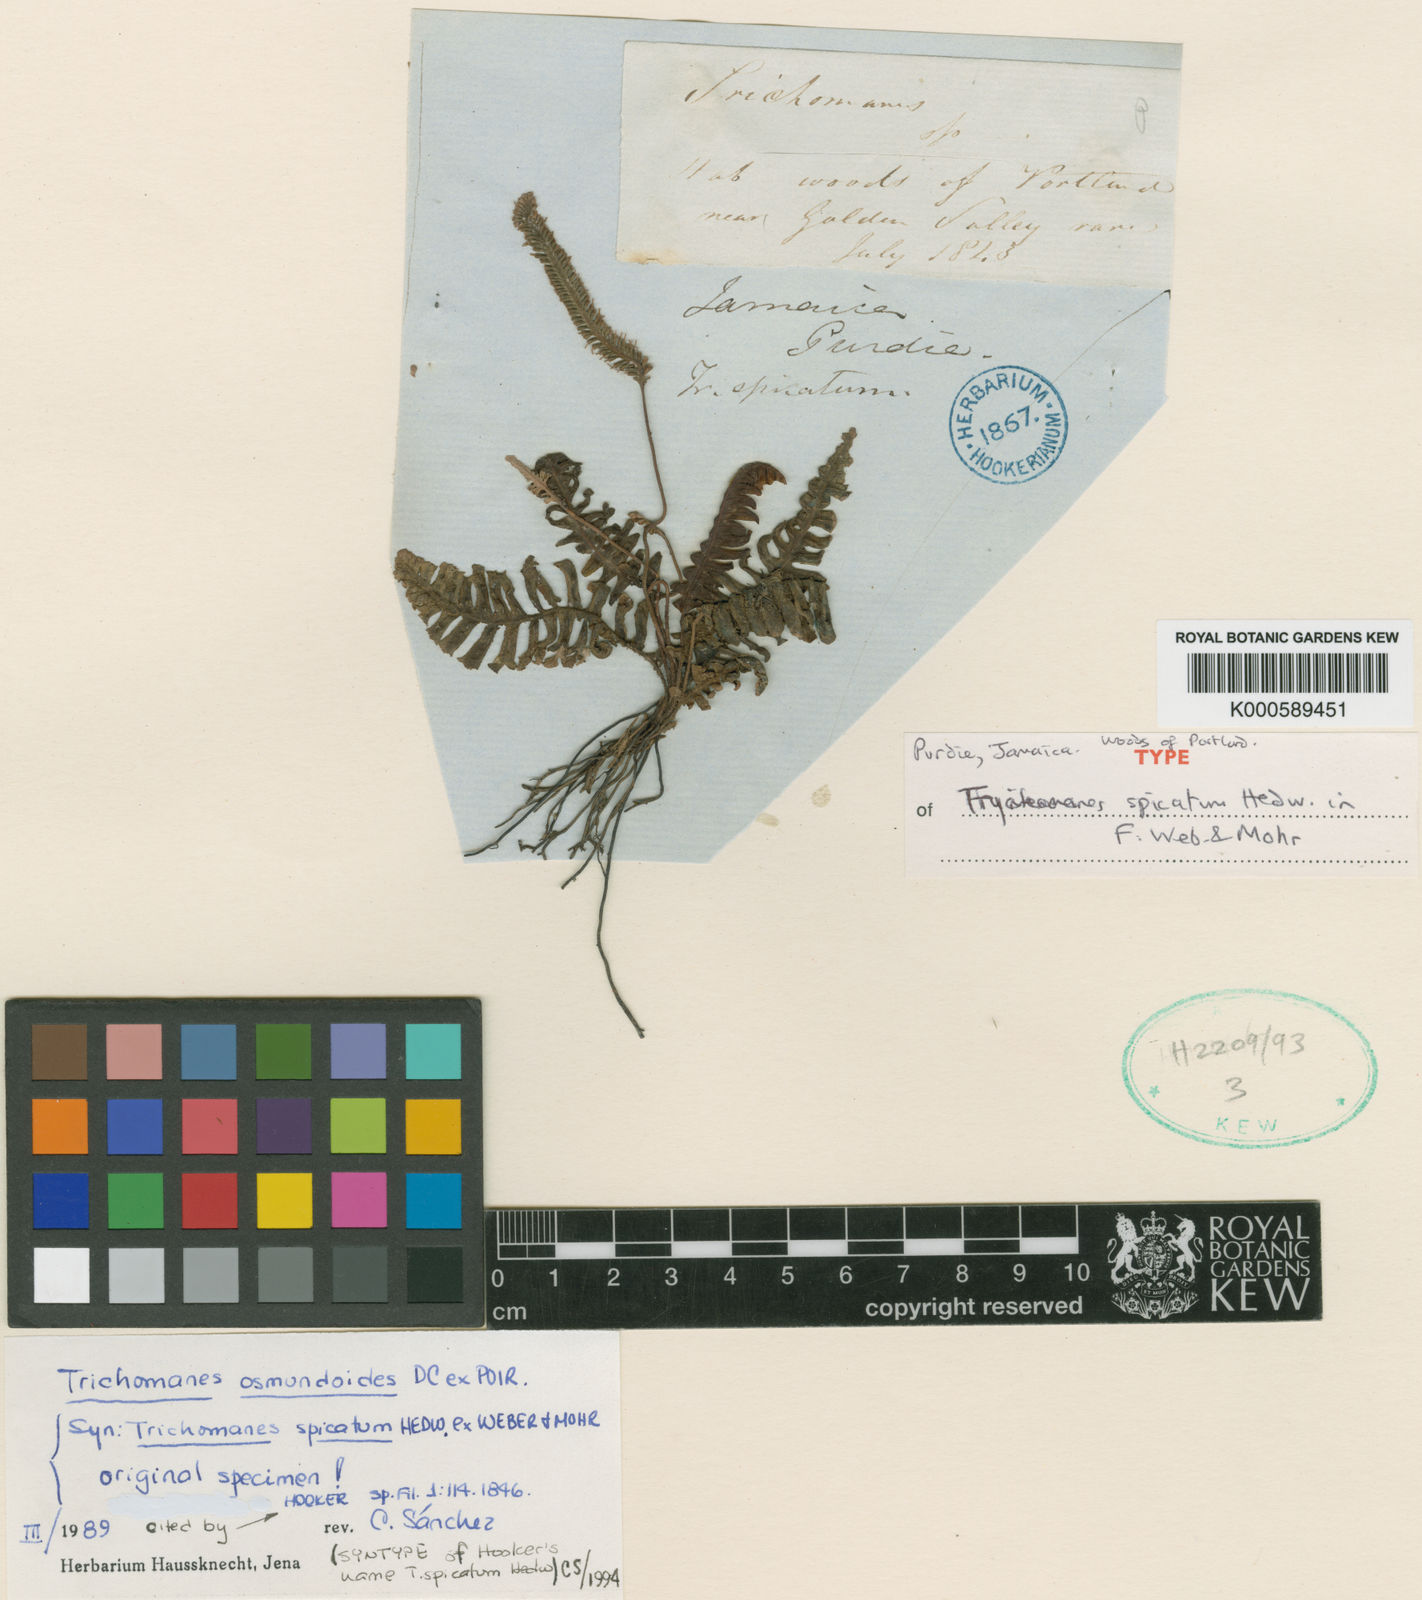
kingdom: Plantae
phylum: Tracheophyta
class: Polypodiopsida
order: Hymenophyllales
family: Hymenophyllaceae
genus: Trichomanes
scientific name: Trichomanes osmundoides
